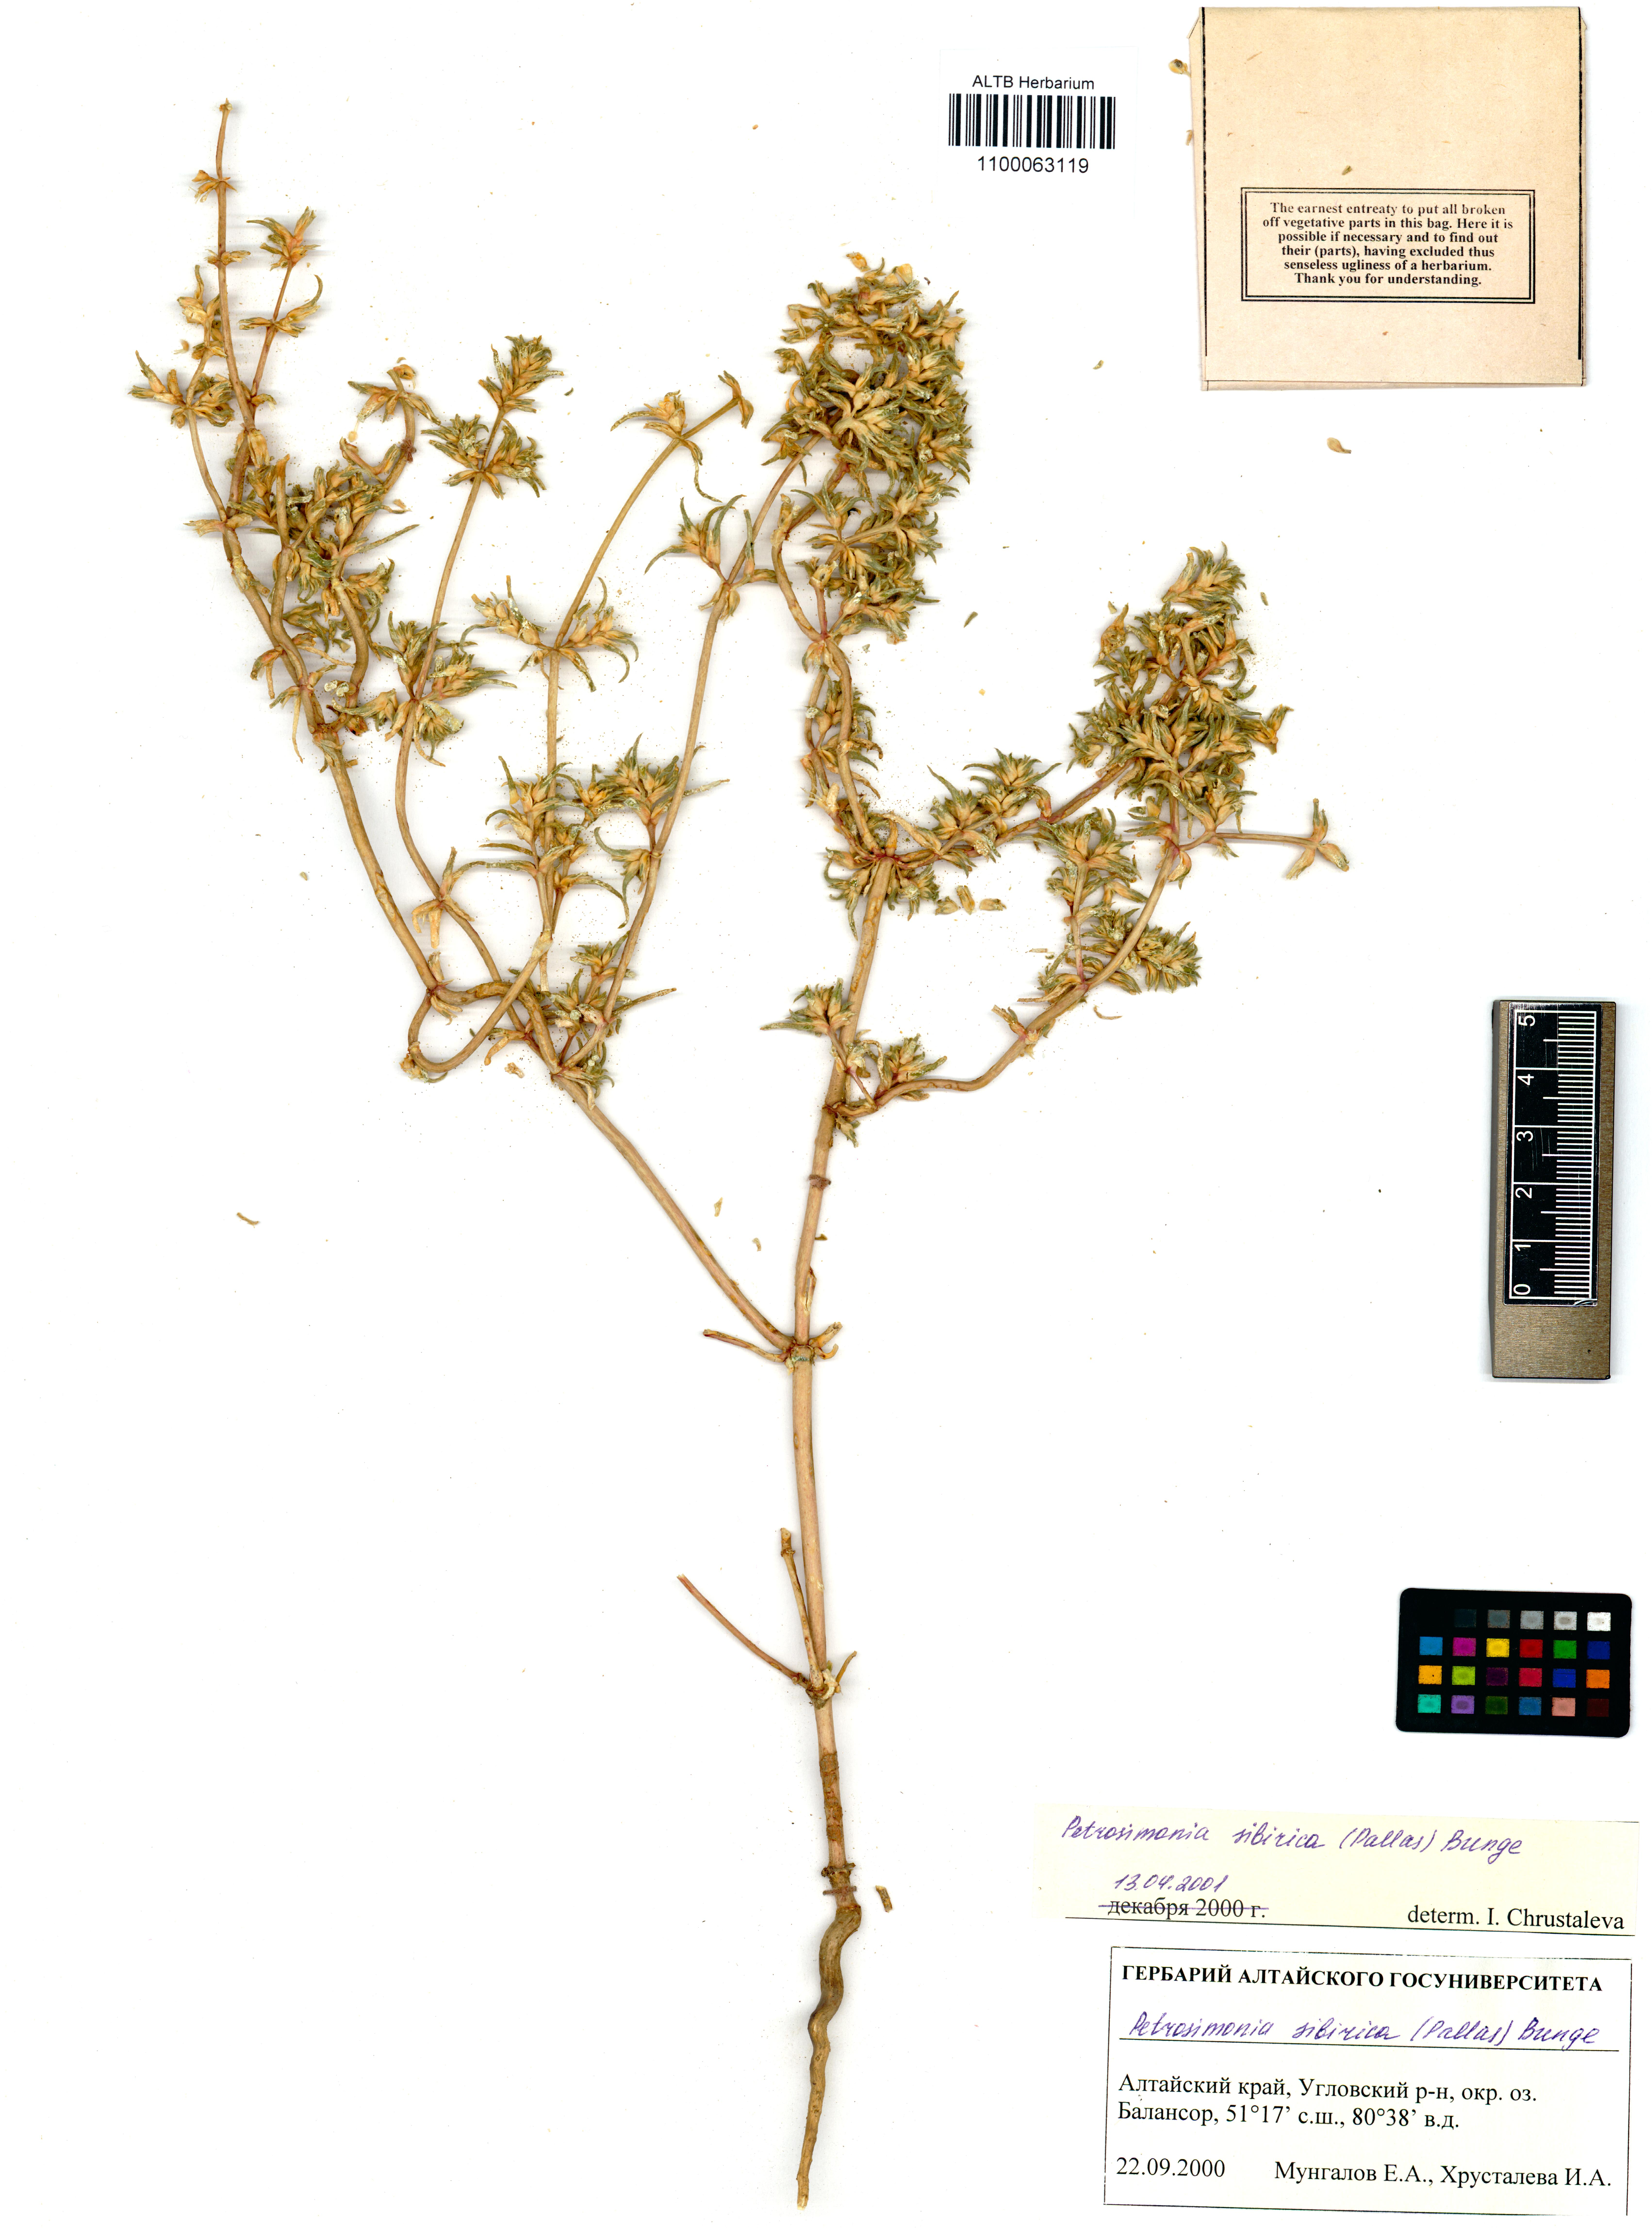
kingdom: Plantae
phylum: Tracheophyta
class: Magnoliopsida
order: Caryophyllales
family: Amaranthaceae
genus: Petrosimonia
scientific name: Petrosimonia sibirica
